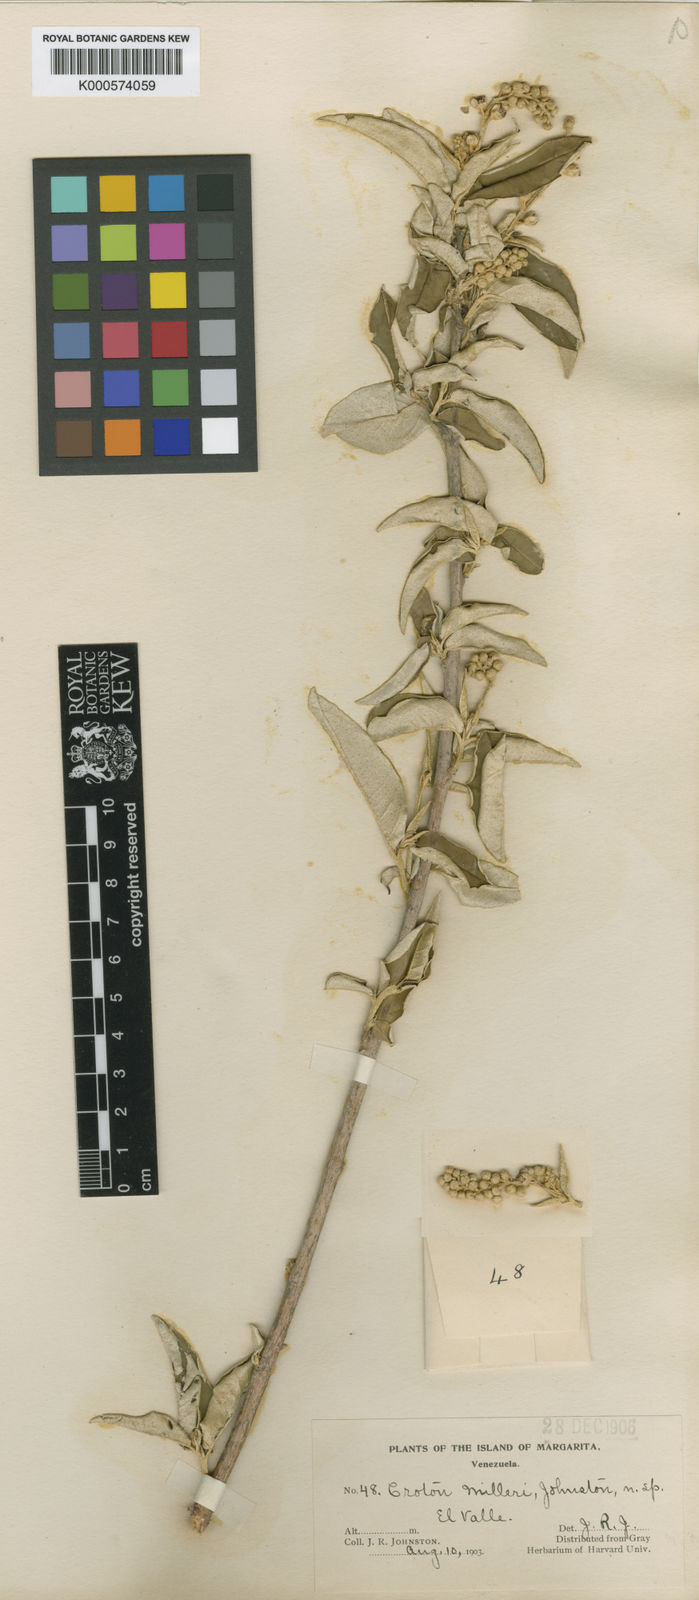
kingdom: Plantae
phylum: Tracheophyta
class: Magnoliopsida
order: Malpighiales
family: Euphorbiaceae
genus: Croton
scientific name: Croton argyrophyllus
